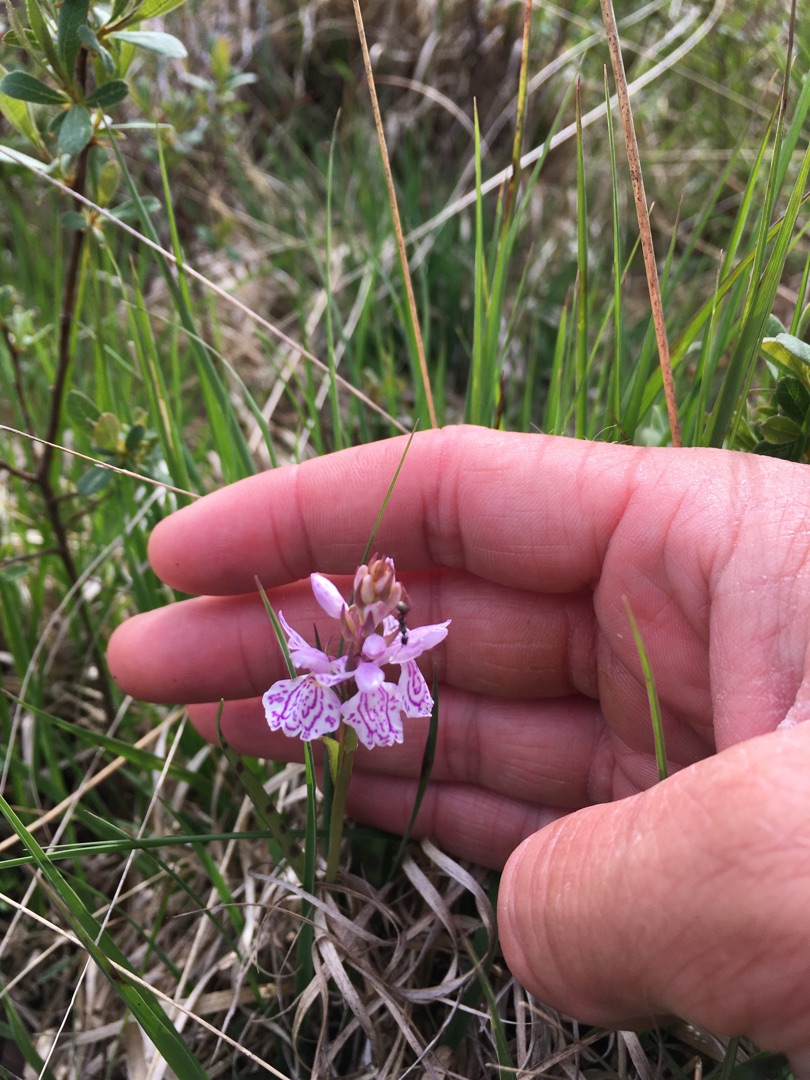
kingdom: Plantae
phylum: Tracheophyta
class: Liliopsida
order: Asparagales
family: Orchidaceae
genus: Dactylorhiza
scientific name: Dactylorhiza maculata
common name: Plettet gøgeurt
